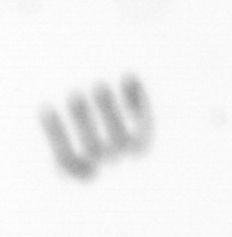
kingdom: Chromista
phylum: Ochrophyta
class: Bacillariophyceae
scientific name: Bacillariophyceae
